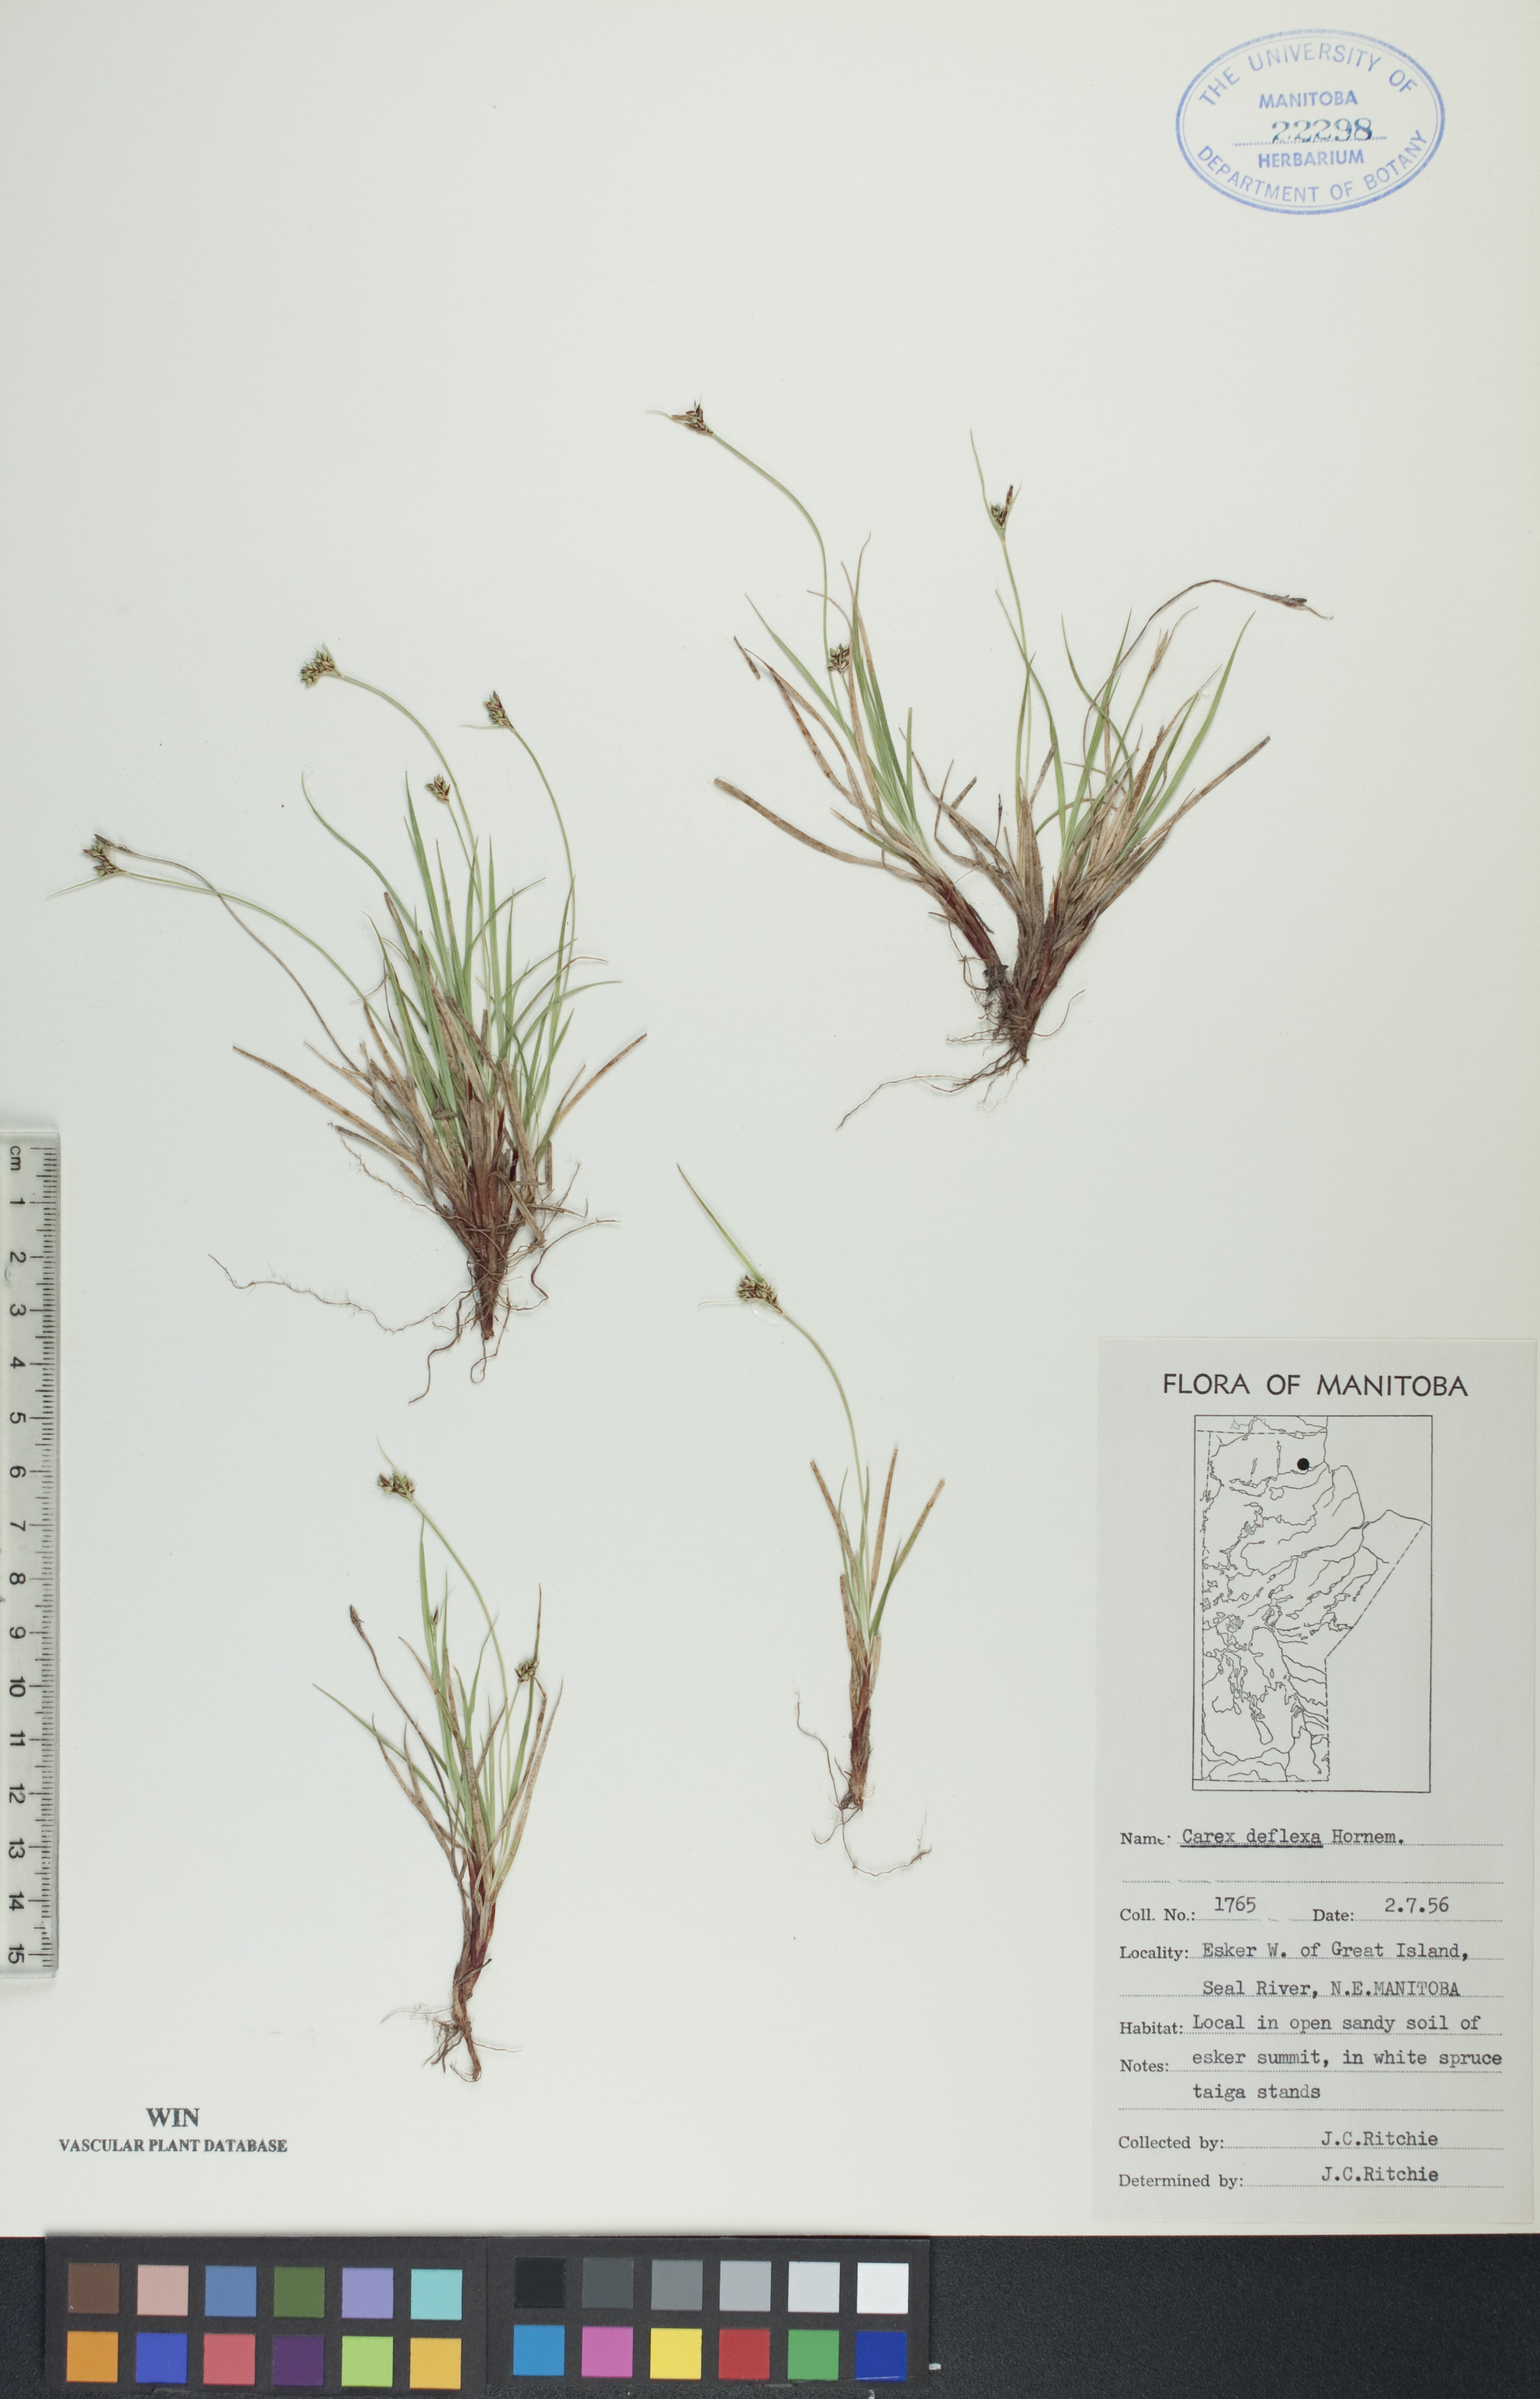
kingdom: Plantae
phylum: Tracheophyta
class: Liliopsida
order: Poales
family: Cyperaceae
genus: Carex
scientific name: Carex deflexa
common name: Bent northern sedge
